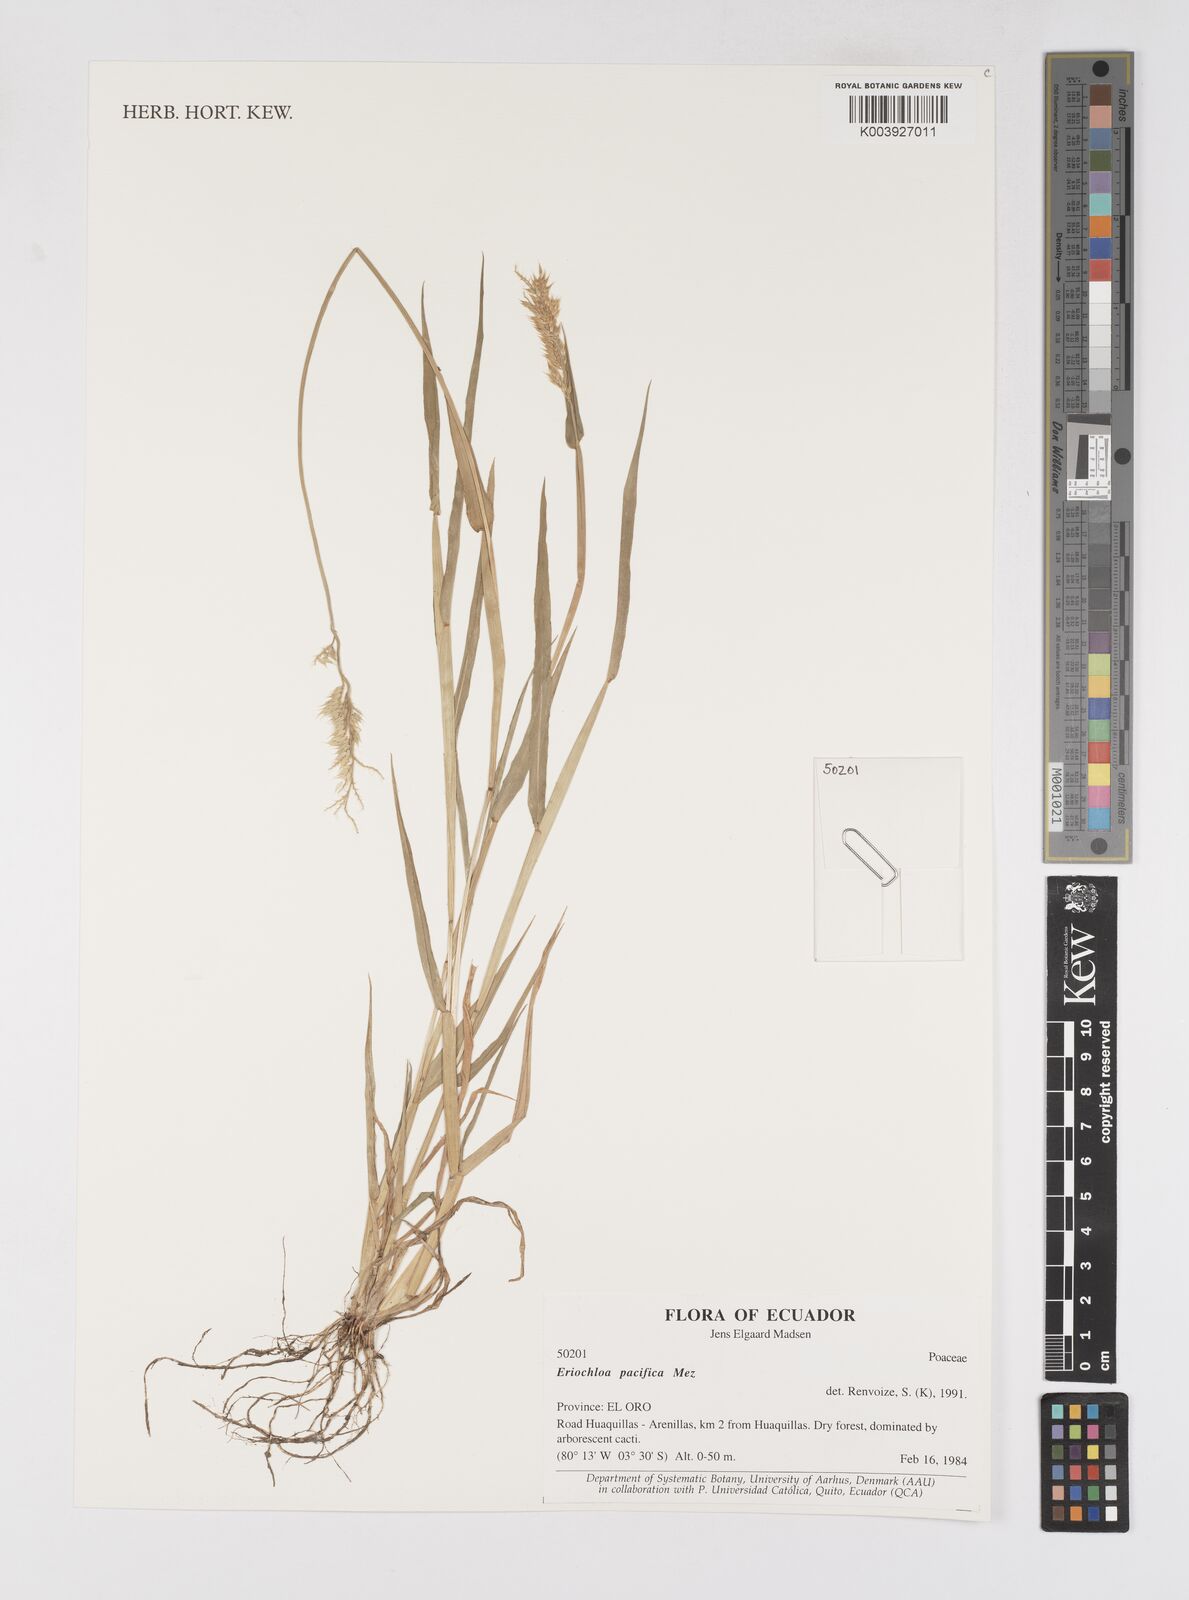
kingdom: Plantae
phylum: Tracheophyta
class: Liliopsida
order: Poales
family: Poaceae
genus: Eriochloa
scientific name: Eriochloa pacifica
